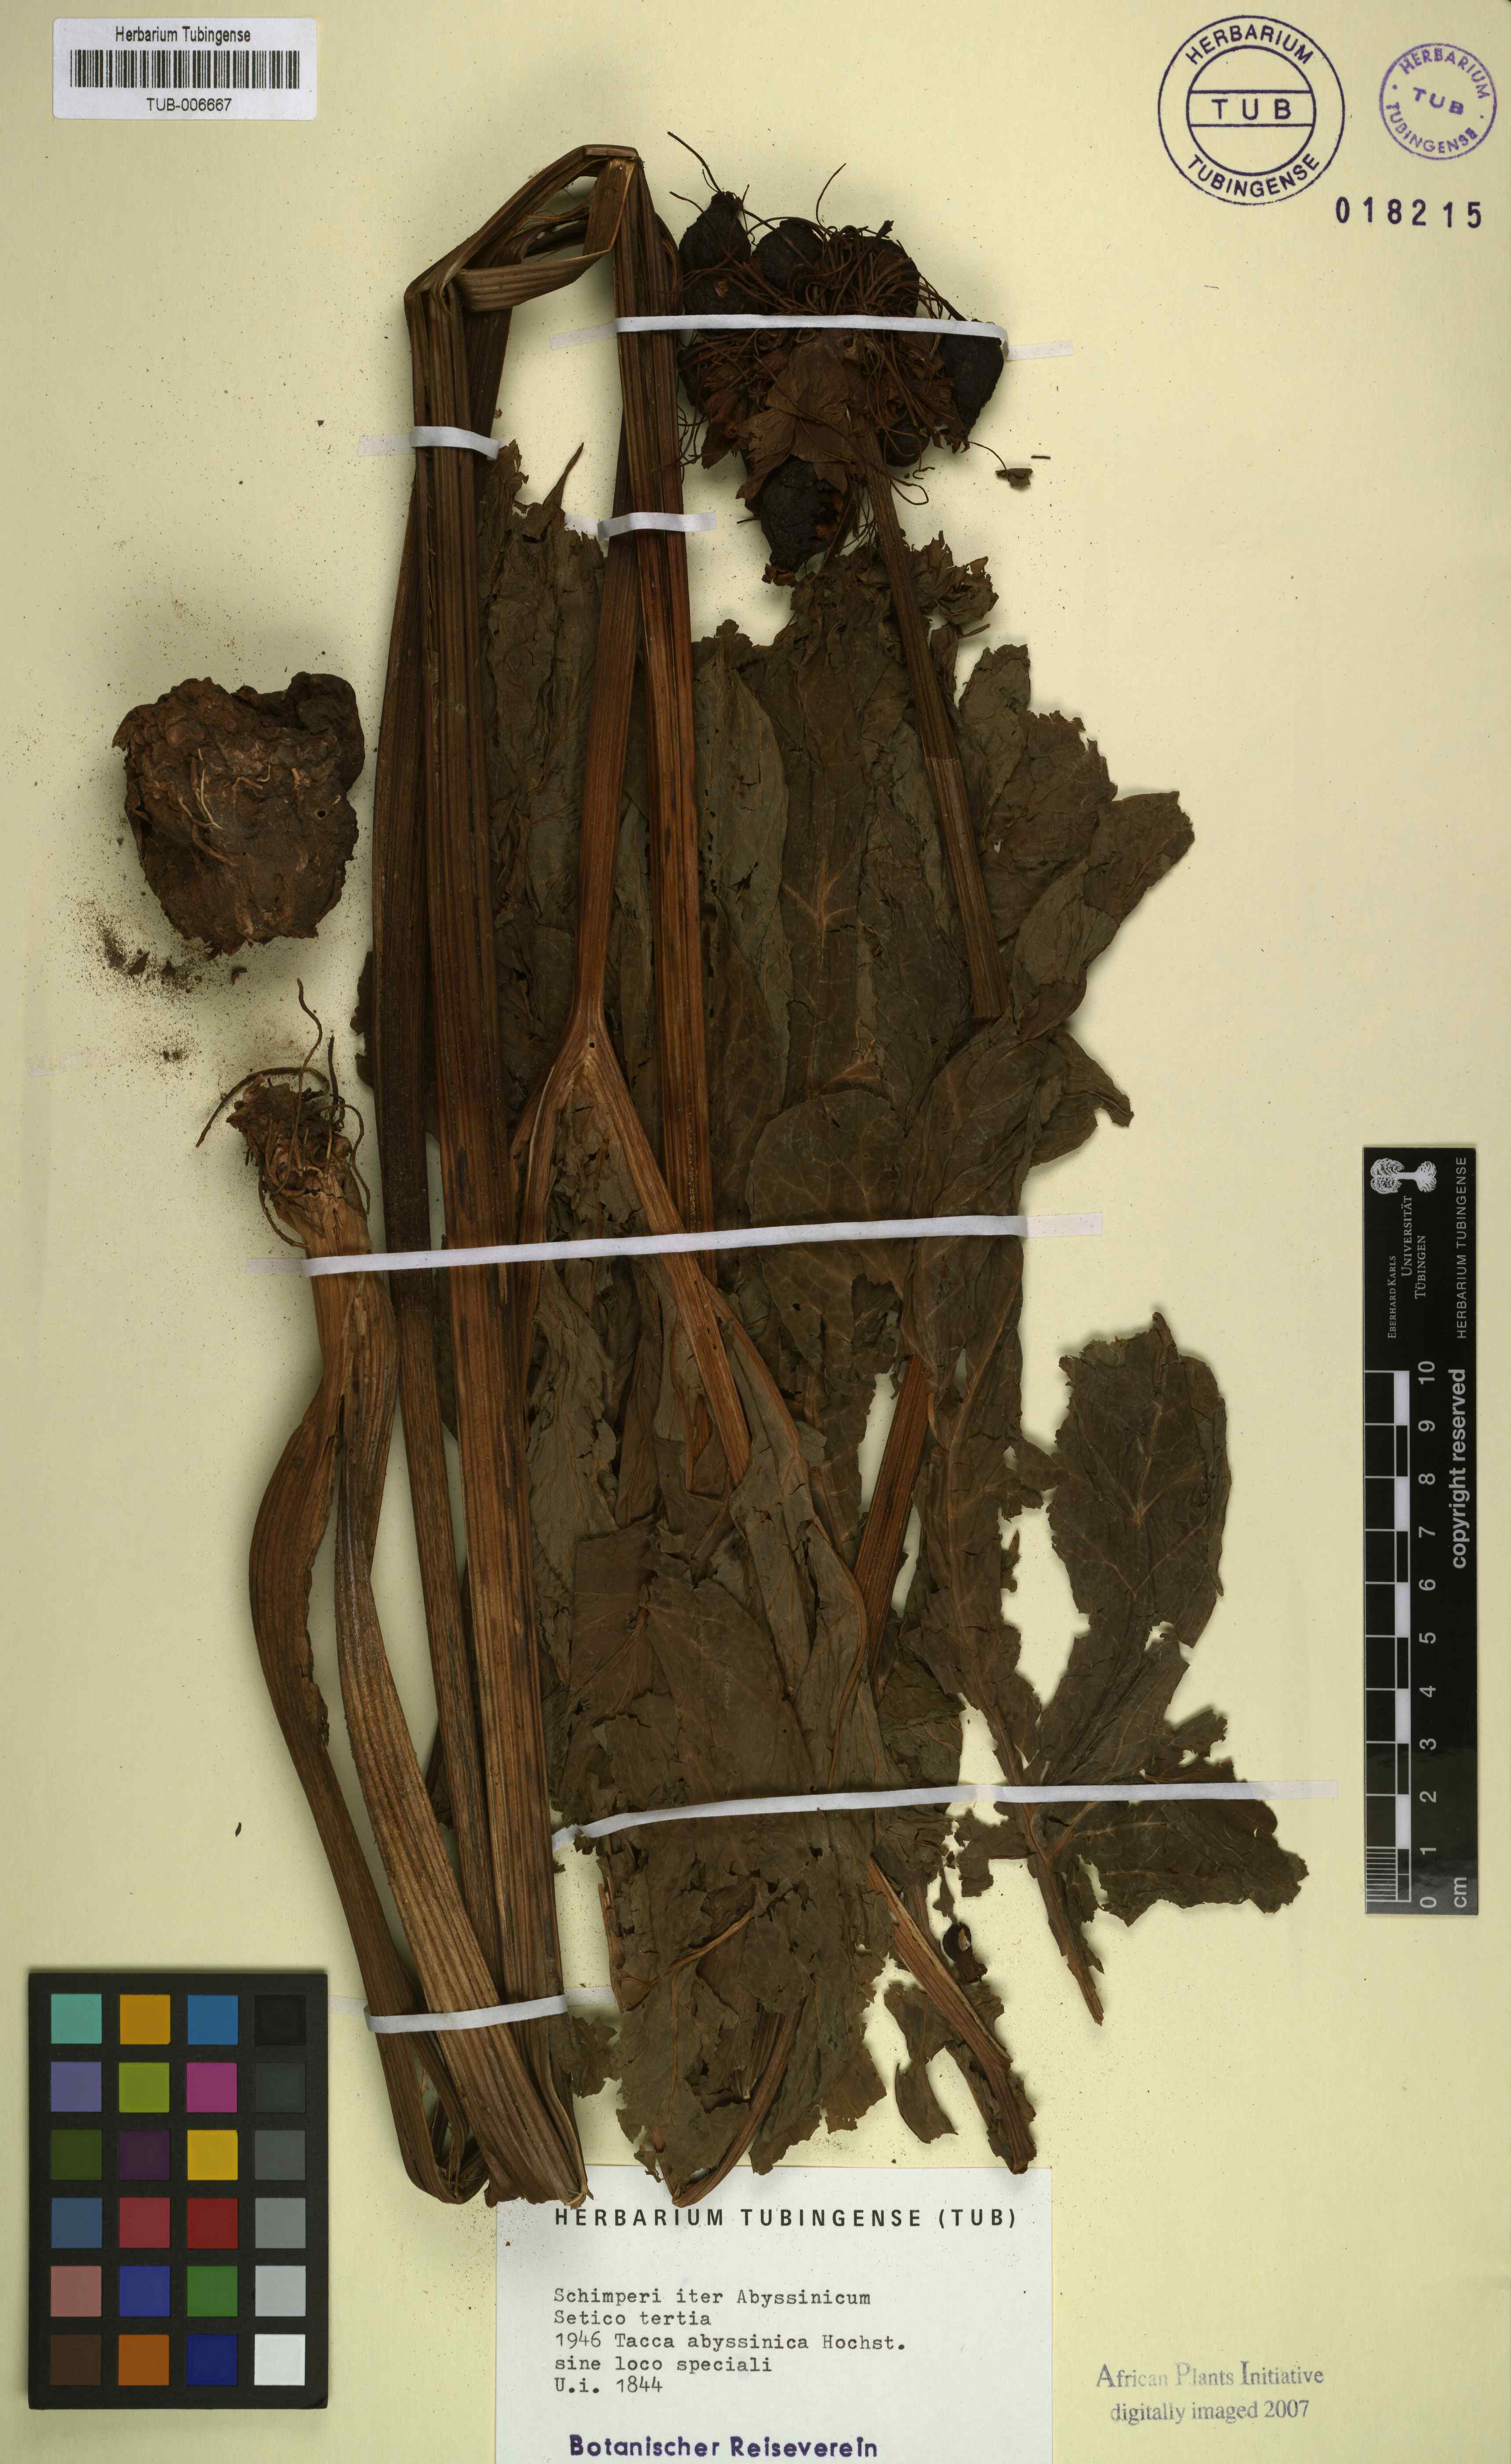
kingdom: Plantae
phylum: Tracheophyta
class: Liliopsida
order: Dioscoreales
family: Dioscoreaceae
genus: Tacca
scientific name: Tacca leontopetaloides
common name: Arrowroot
